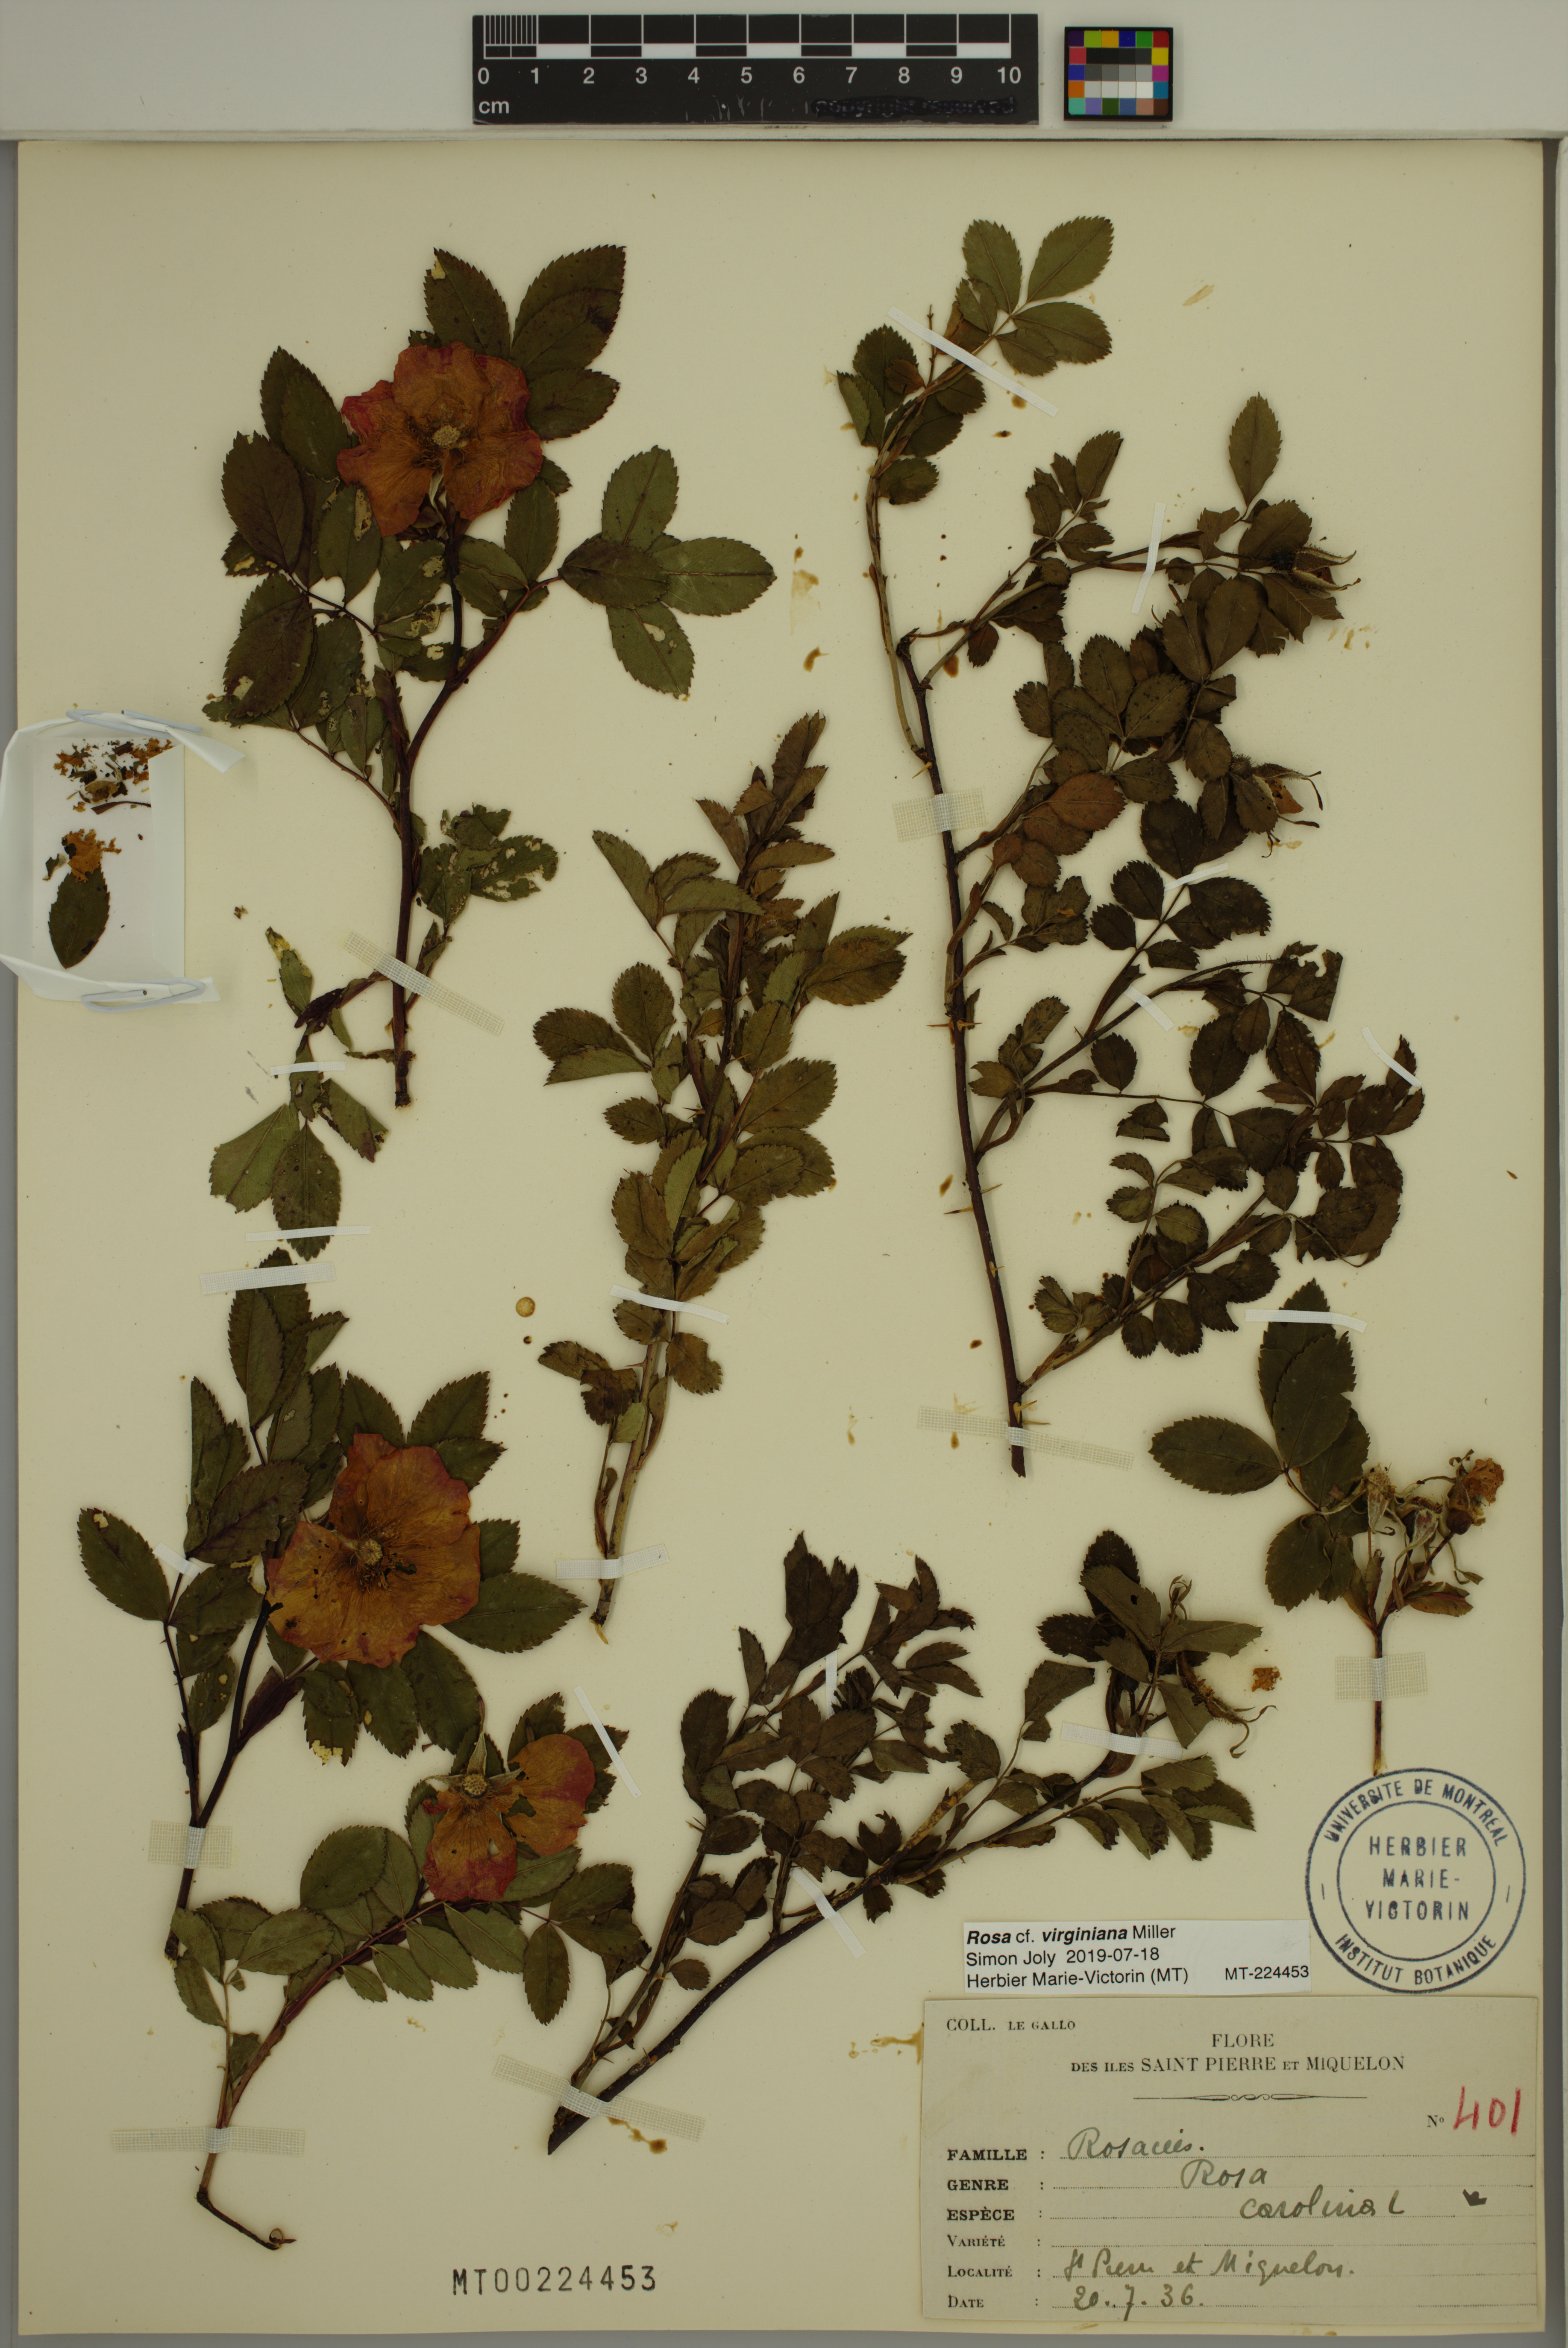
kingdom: Plantae
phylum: Tracheophyta
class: Magnoliopsida
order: Rosales
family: Rosaceae
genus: Rosa
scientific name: Rosa carolina
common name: Pasture rose
